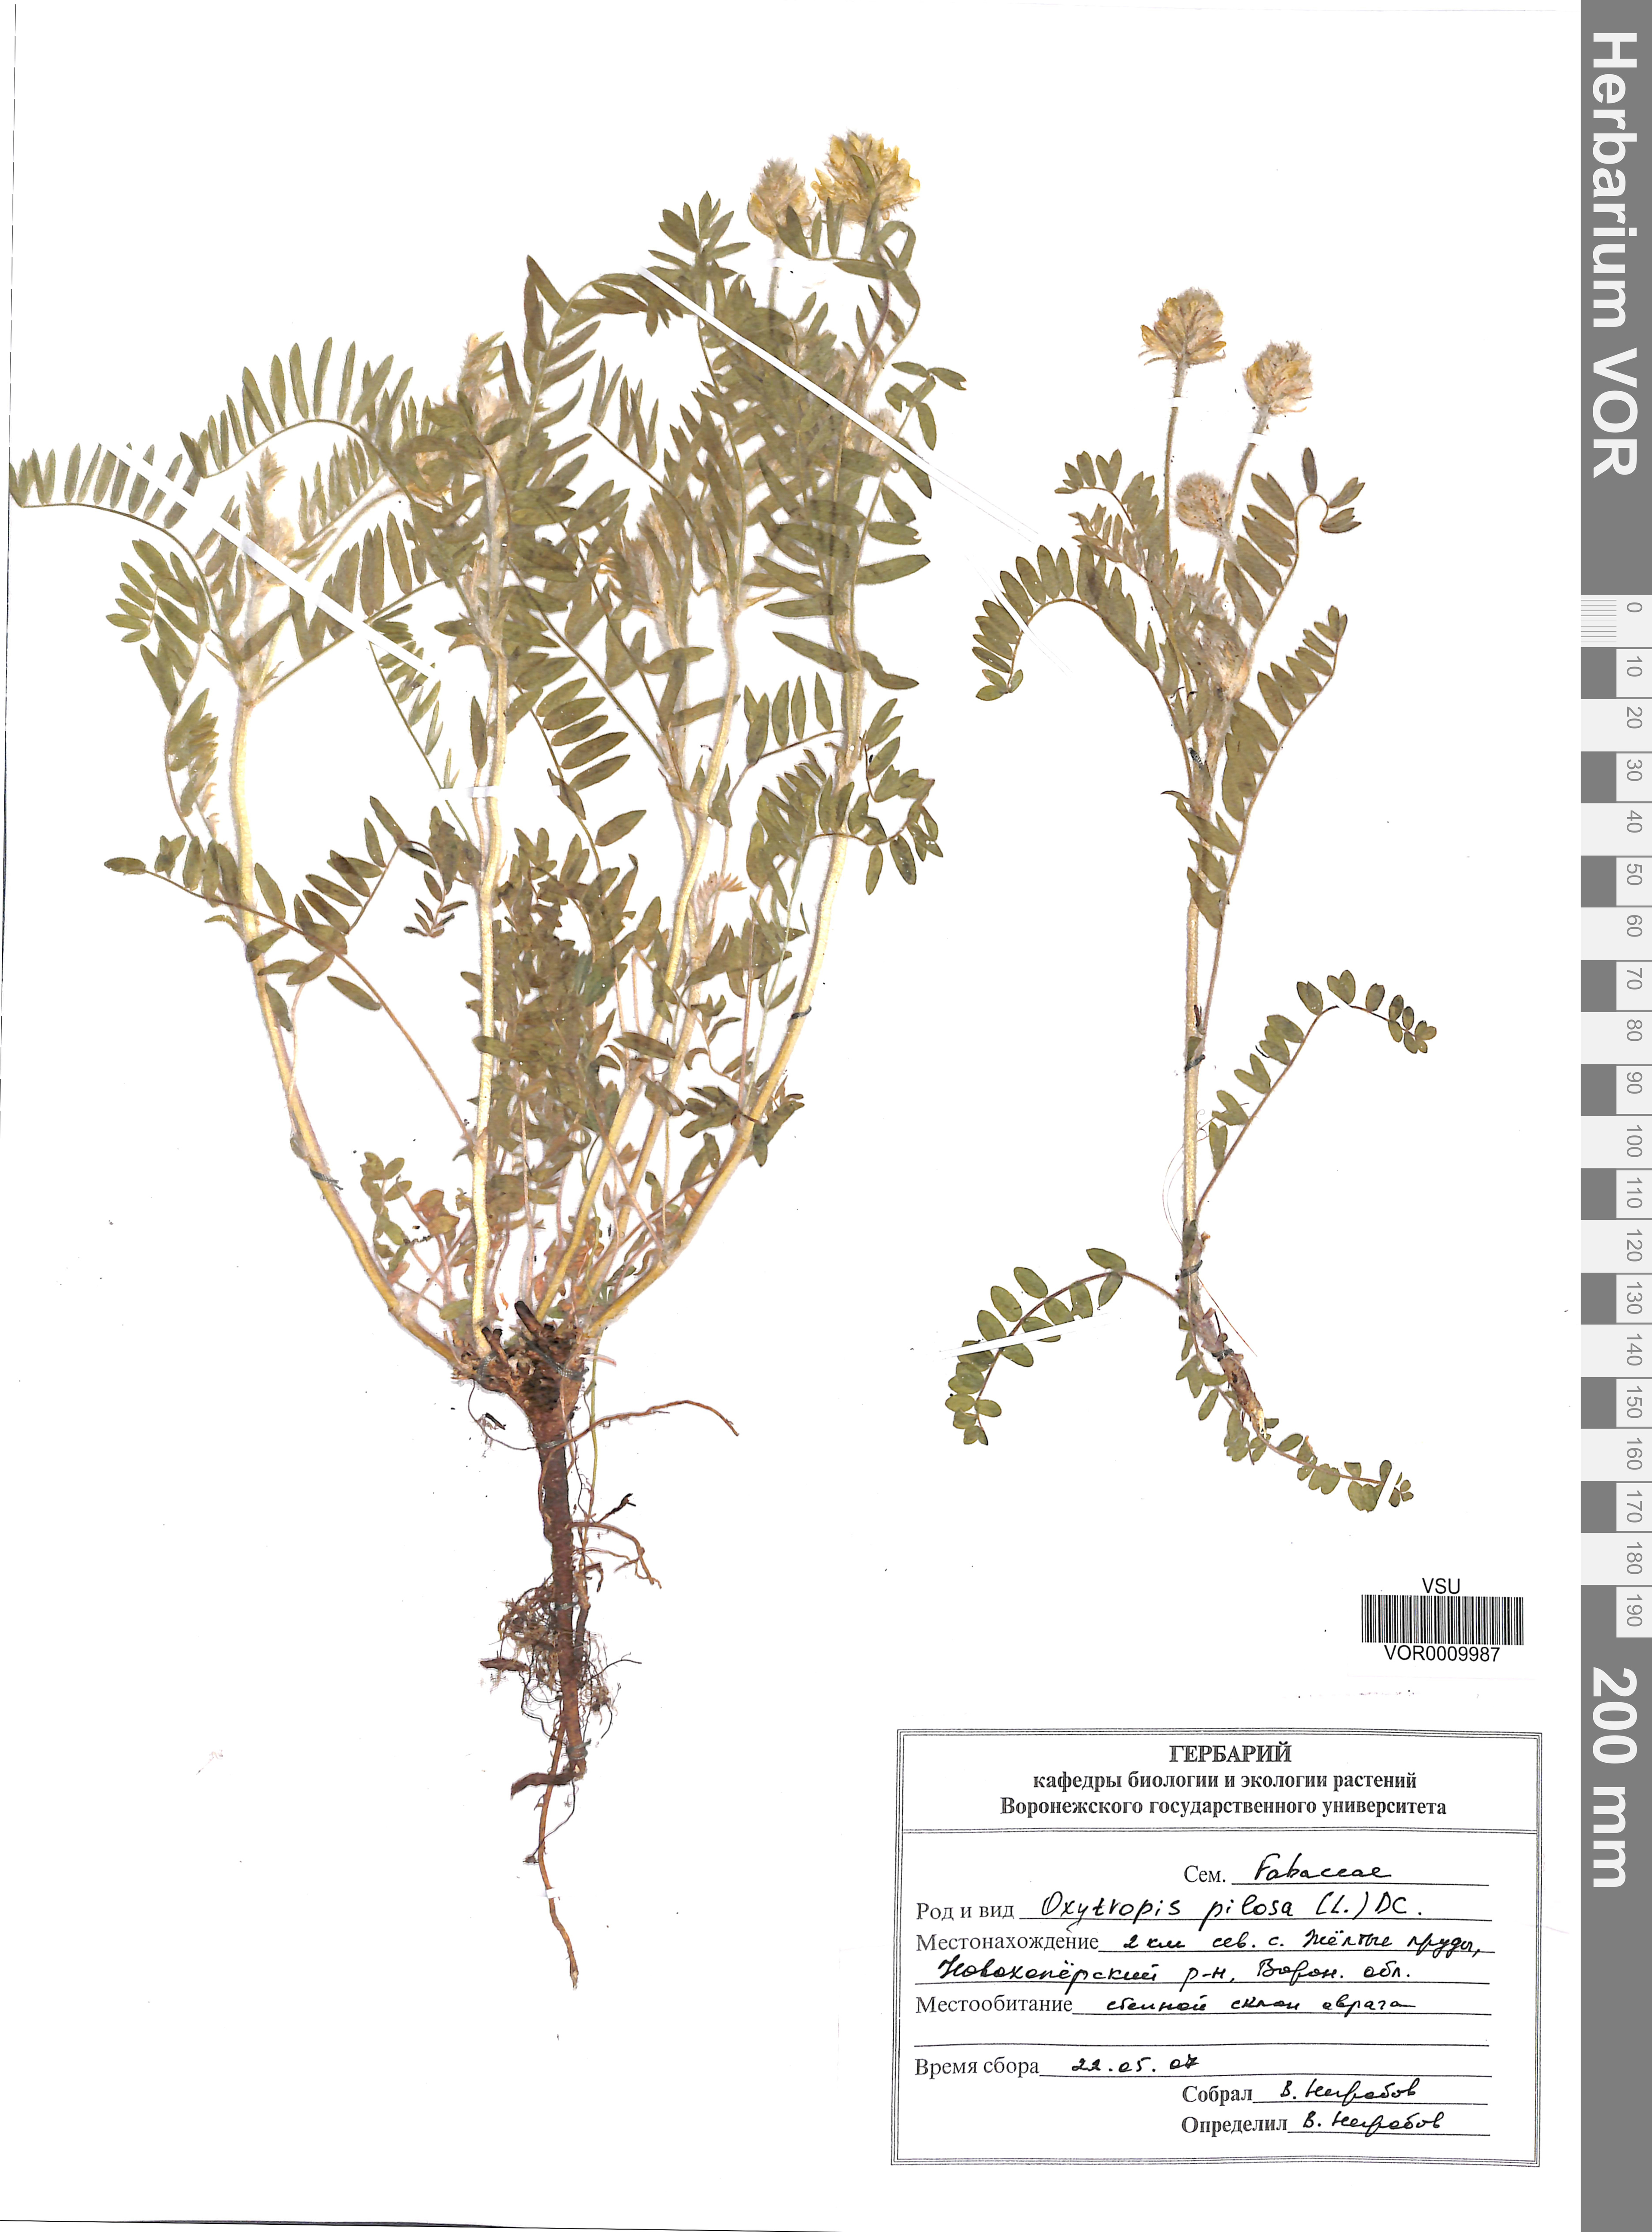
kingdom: Plantae
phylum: Tracheophyta
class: Magnoliopsida
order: Fabales
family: Fabaceae
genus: Oxytropis
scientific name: Oxytropis pilosa
